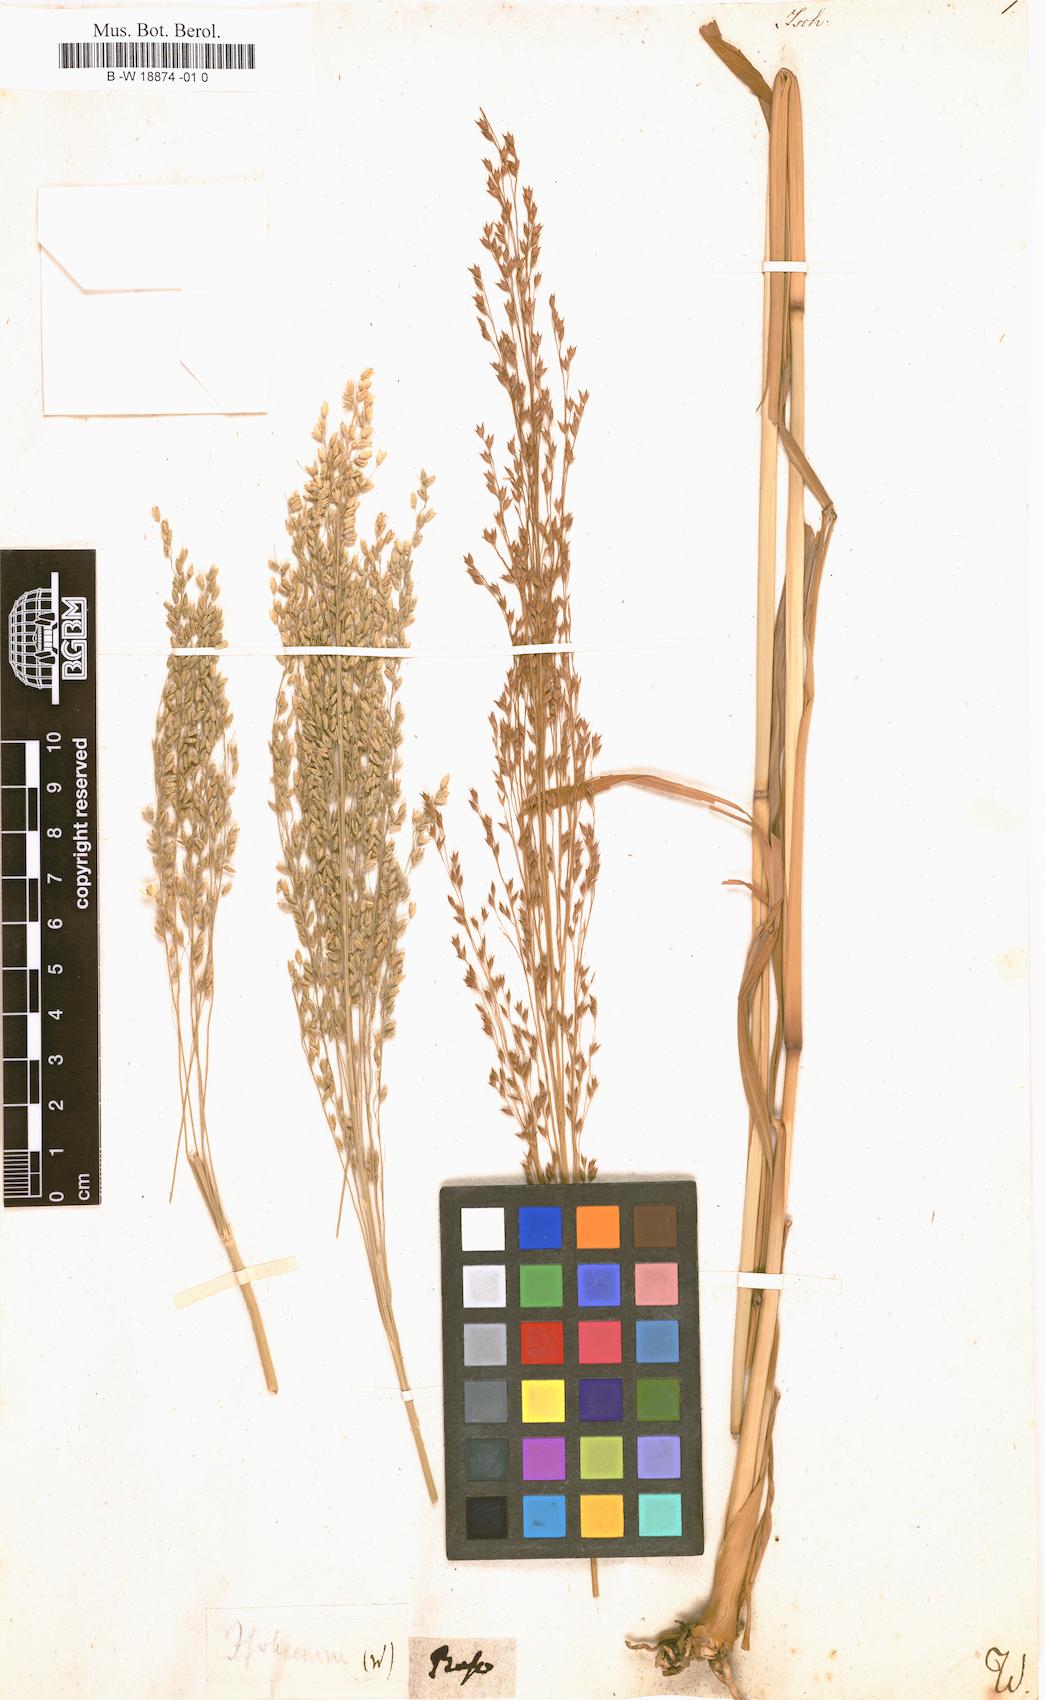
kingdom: Plantae
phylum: Tracheophyta
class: Liliopsida
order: Poales
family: Poaceae
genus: Ischaemum
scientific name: Ischaemum
